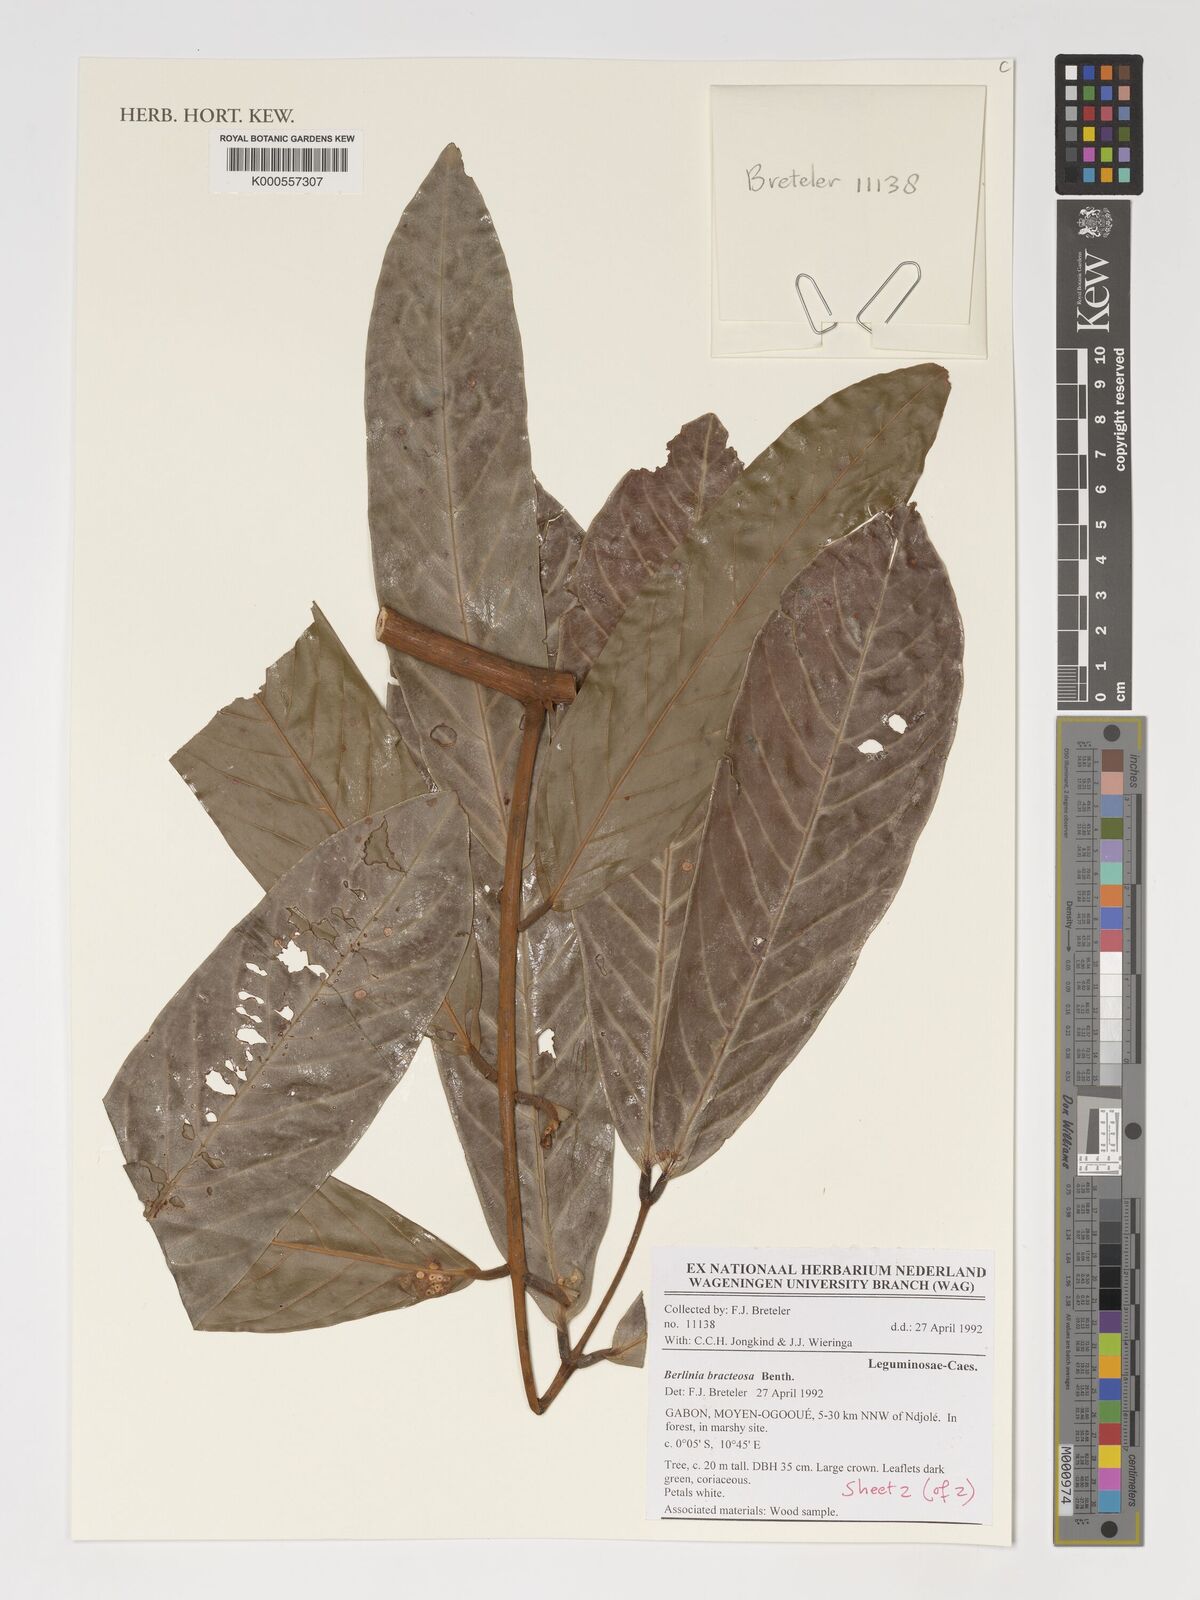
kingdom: Plantae
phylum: Tracheophyta
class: Magnoliopsida
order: Fabales
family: Fabaceae
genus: Berlinia
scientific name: Berlinia bracteosa
